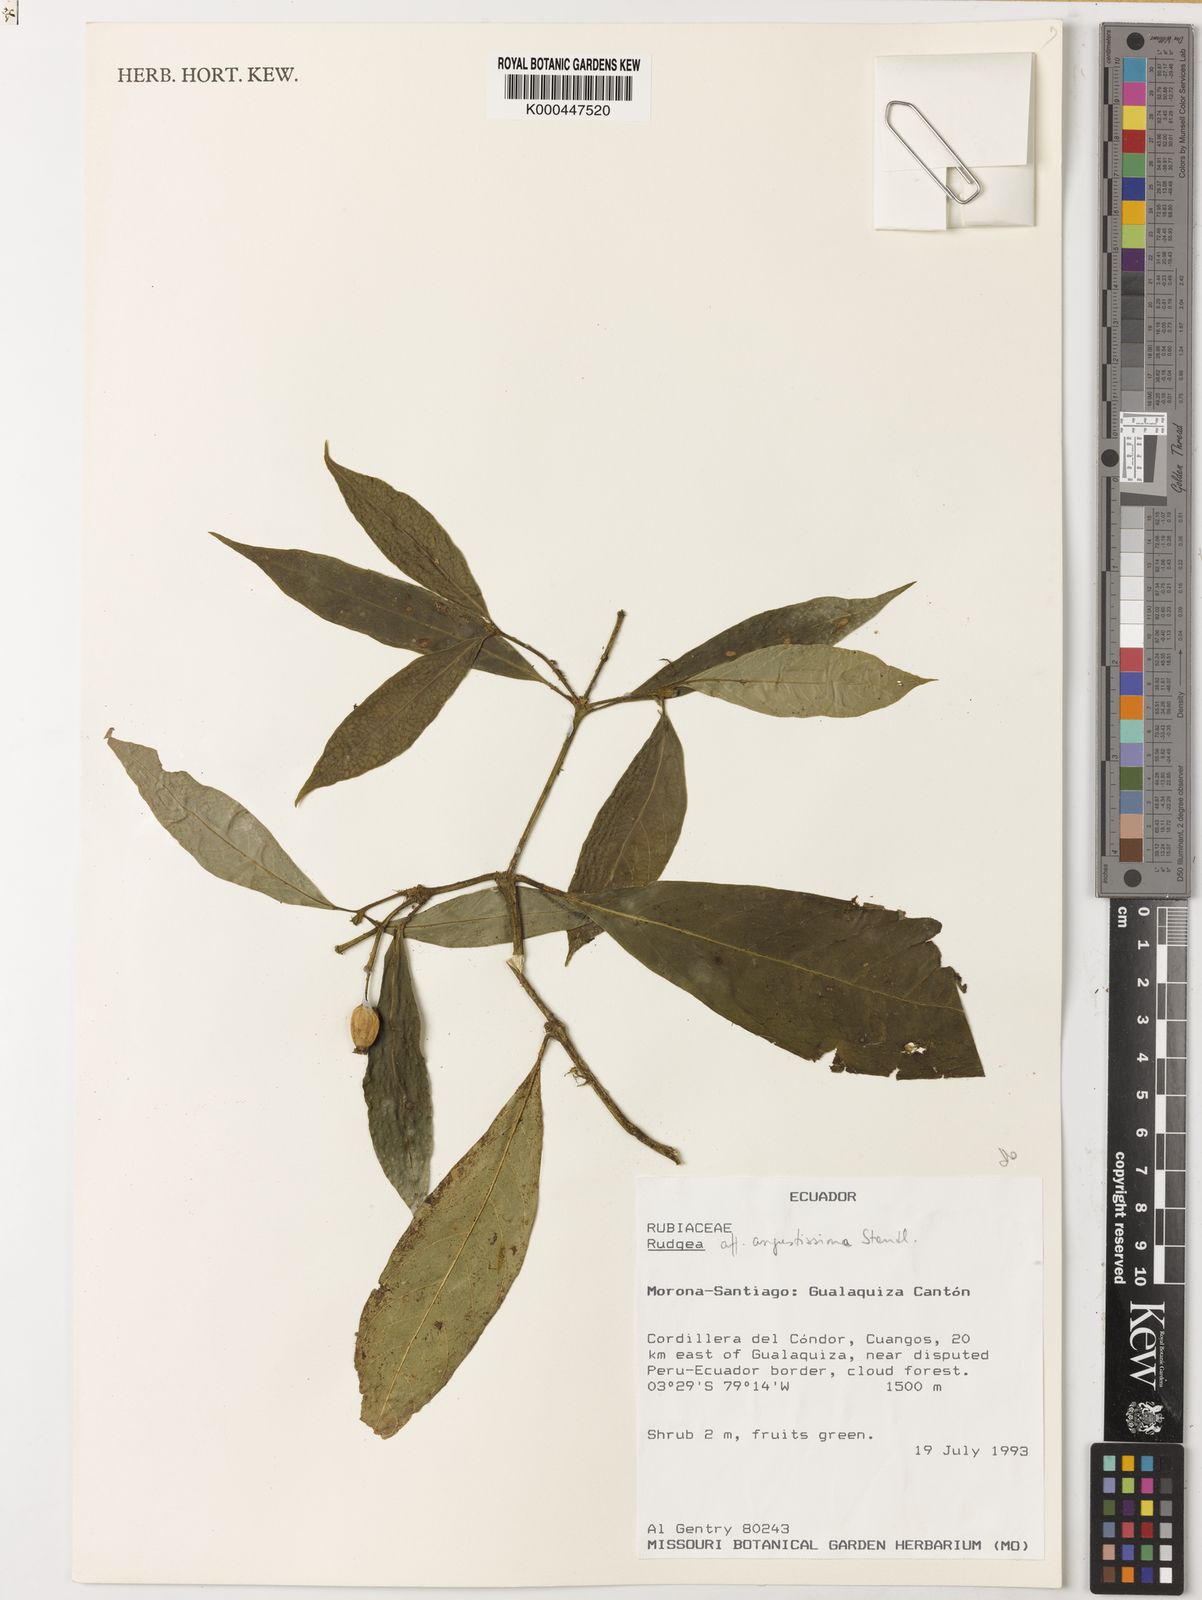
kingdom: Plantae
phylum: Tracheophyta
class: Magnoliopsida
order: Gentianales
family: Rubiaceae
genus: Rudgea
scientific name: Rudgea
